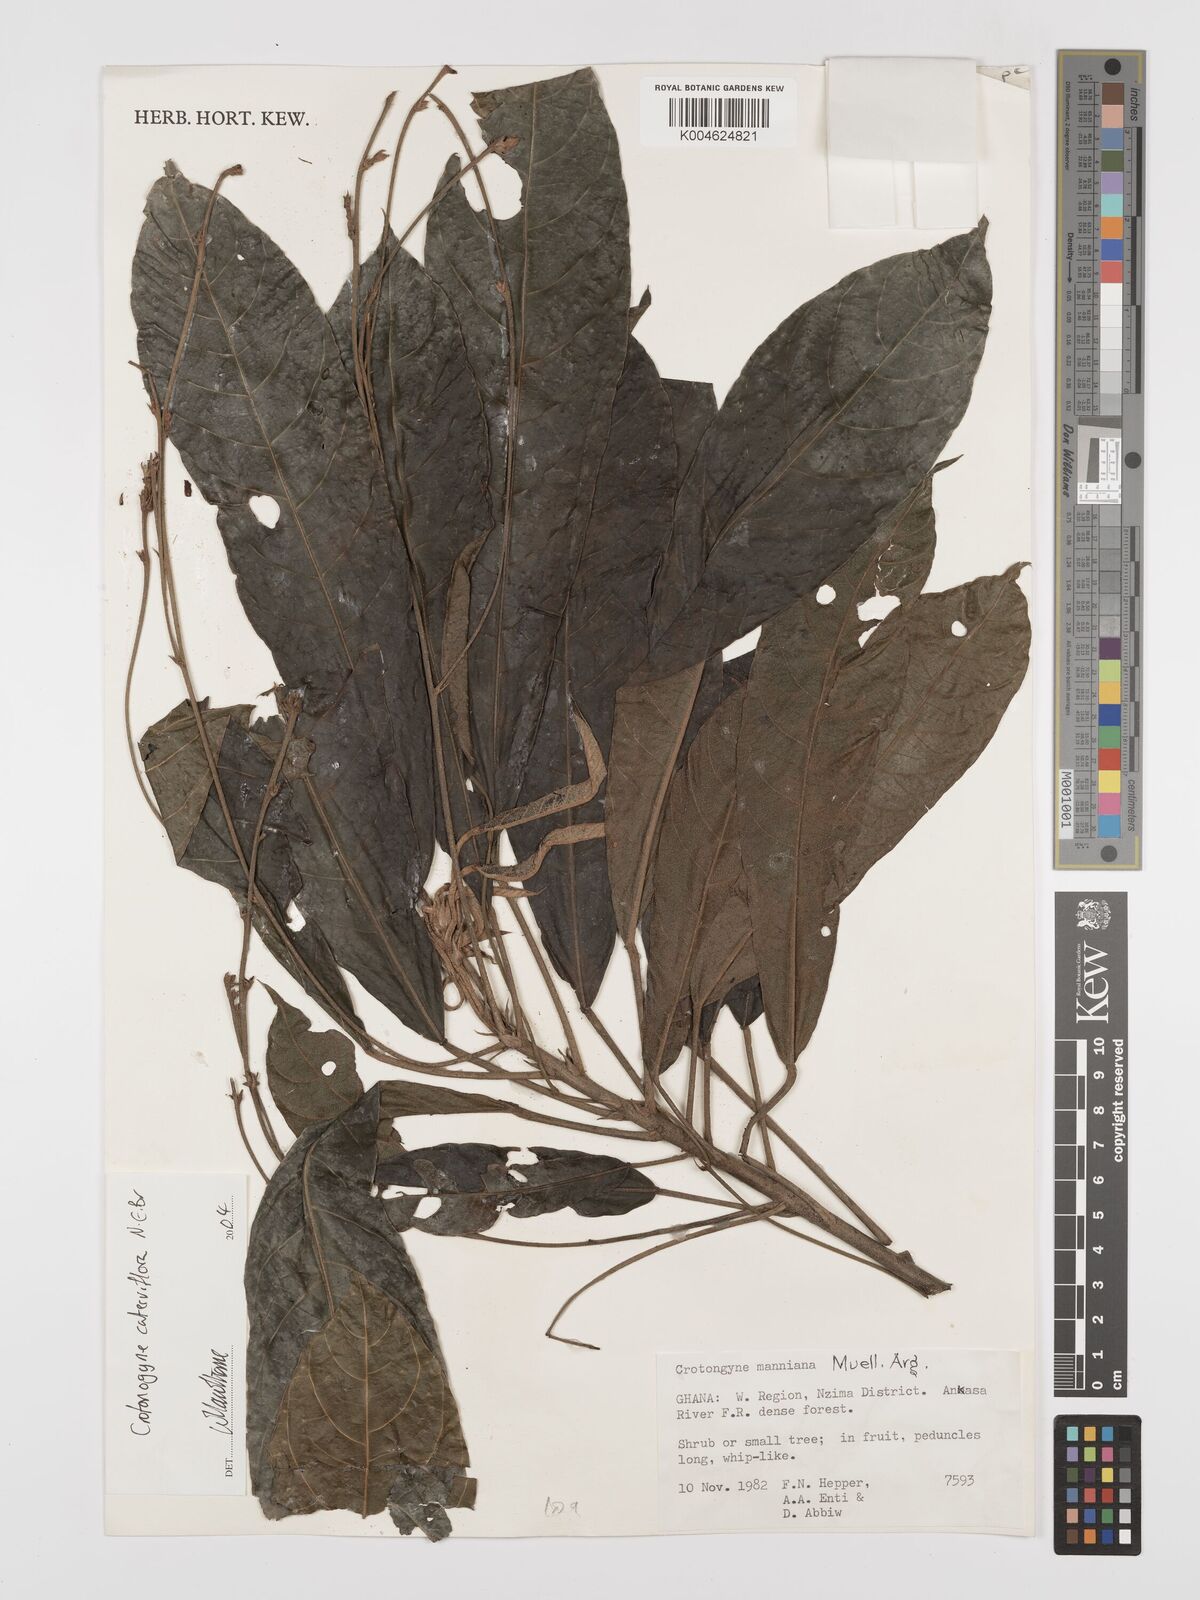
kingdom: Plantae
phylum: Tracheophyta
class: Magnoliopsida
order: Malpighiales
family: Euphorbiaceae
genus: Crotonogyne
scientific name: Crotonogyne caterviflora
